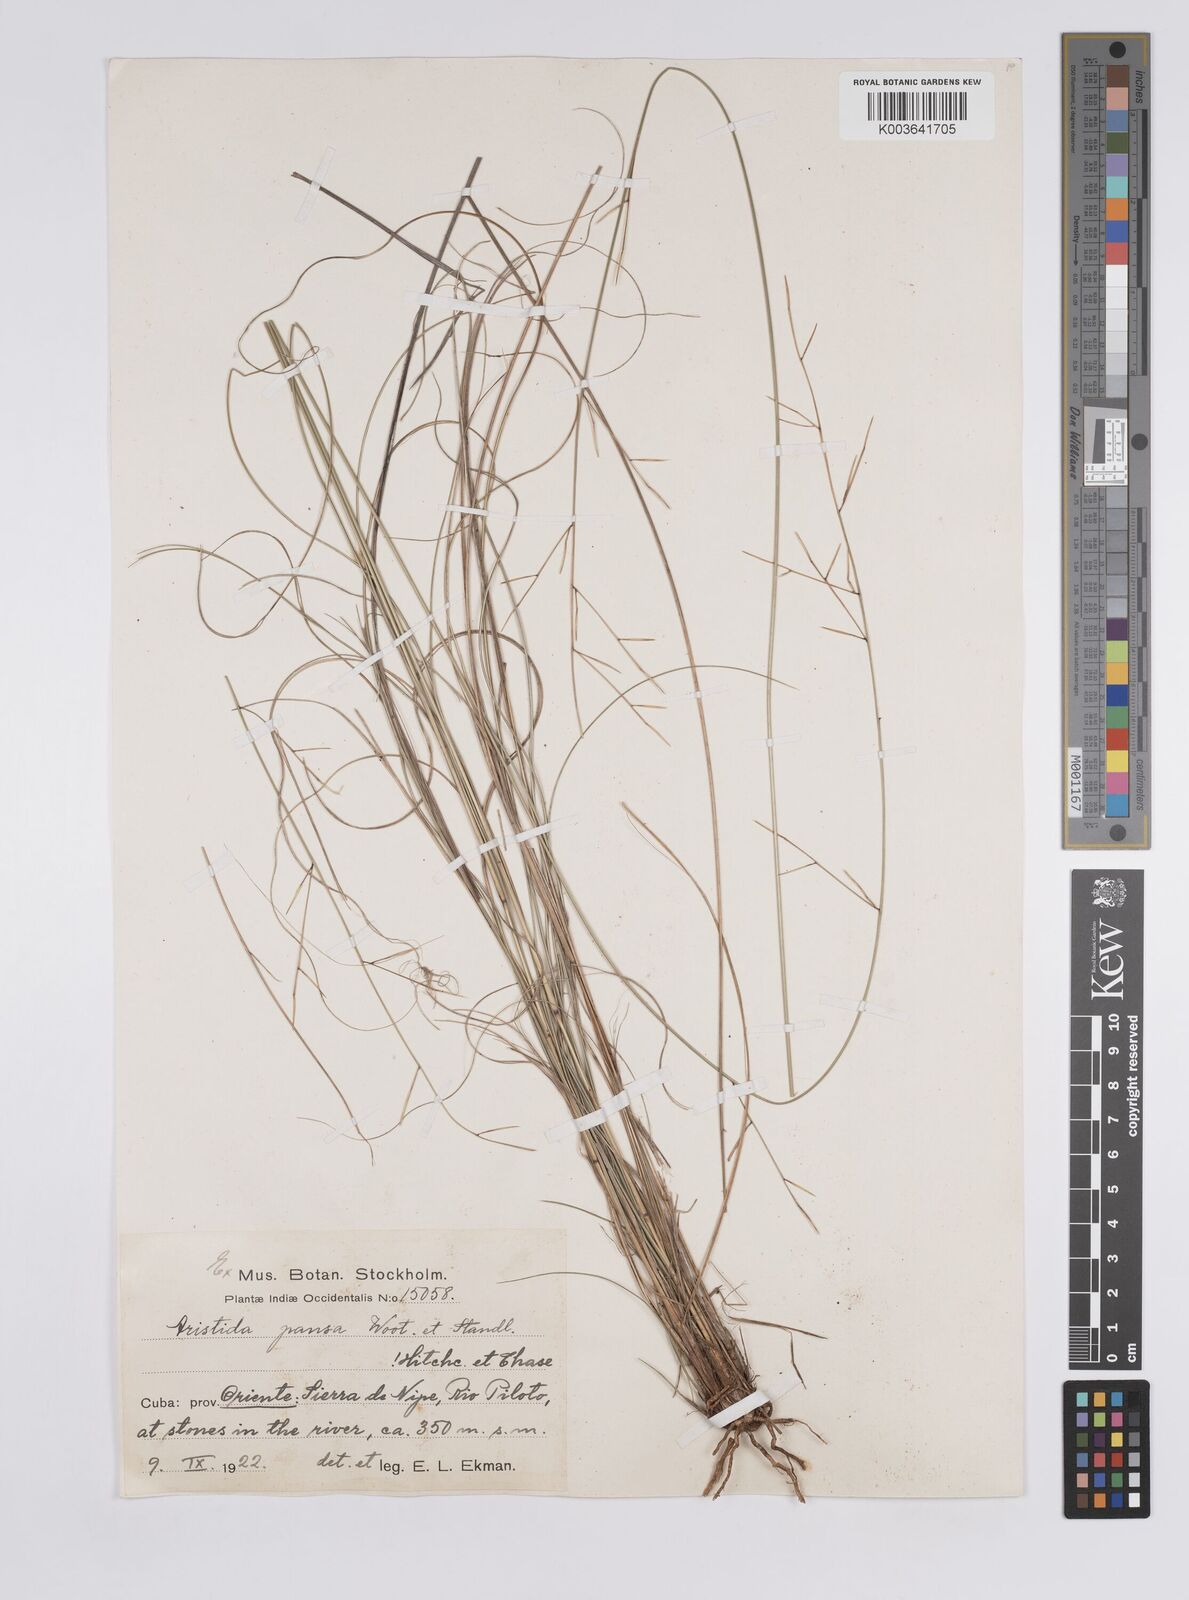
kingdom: Plantae
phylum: Tracheophyta
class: Liliopsida
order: Poales
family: Poaceae
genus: Aristida
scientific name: Aristida
